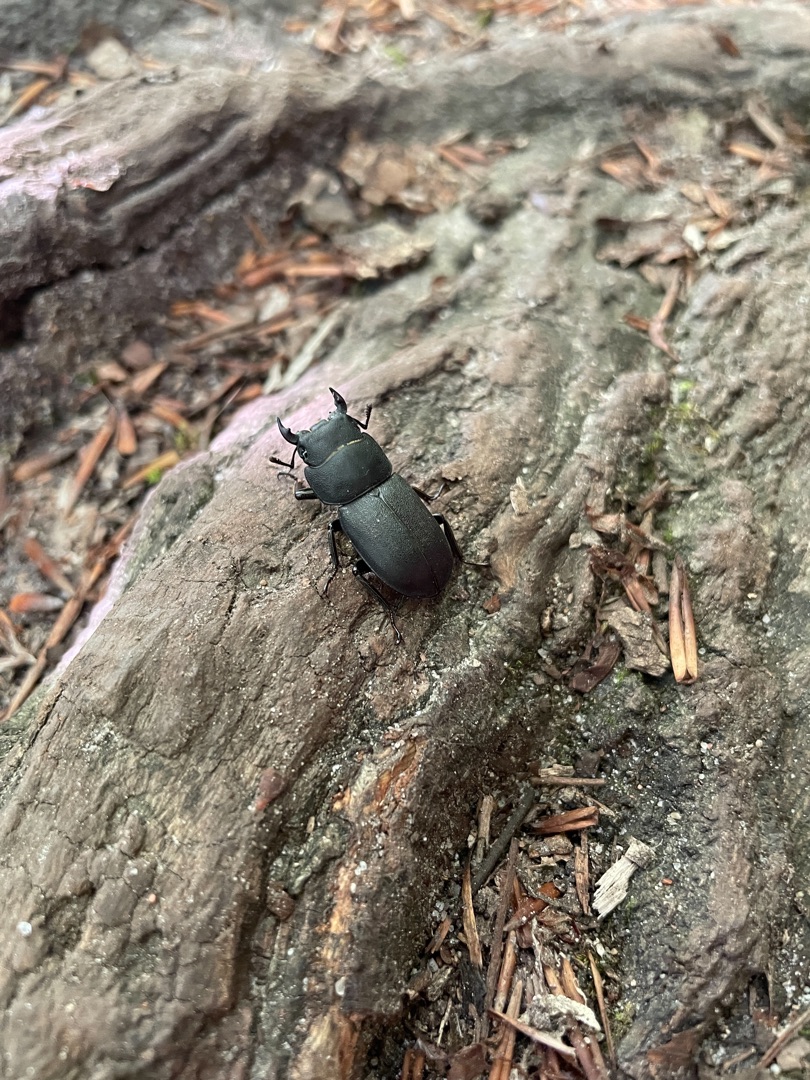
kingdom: Animalia
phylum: Arthropoda
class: Insecta
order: Coleoptera
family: Lucanidae
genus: Dorcus
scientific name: Dorcus parallelipipedus
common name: Bøghjort
